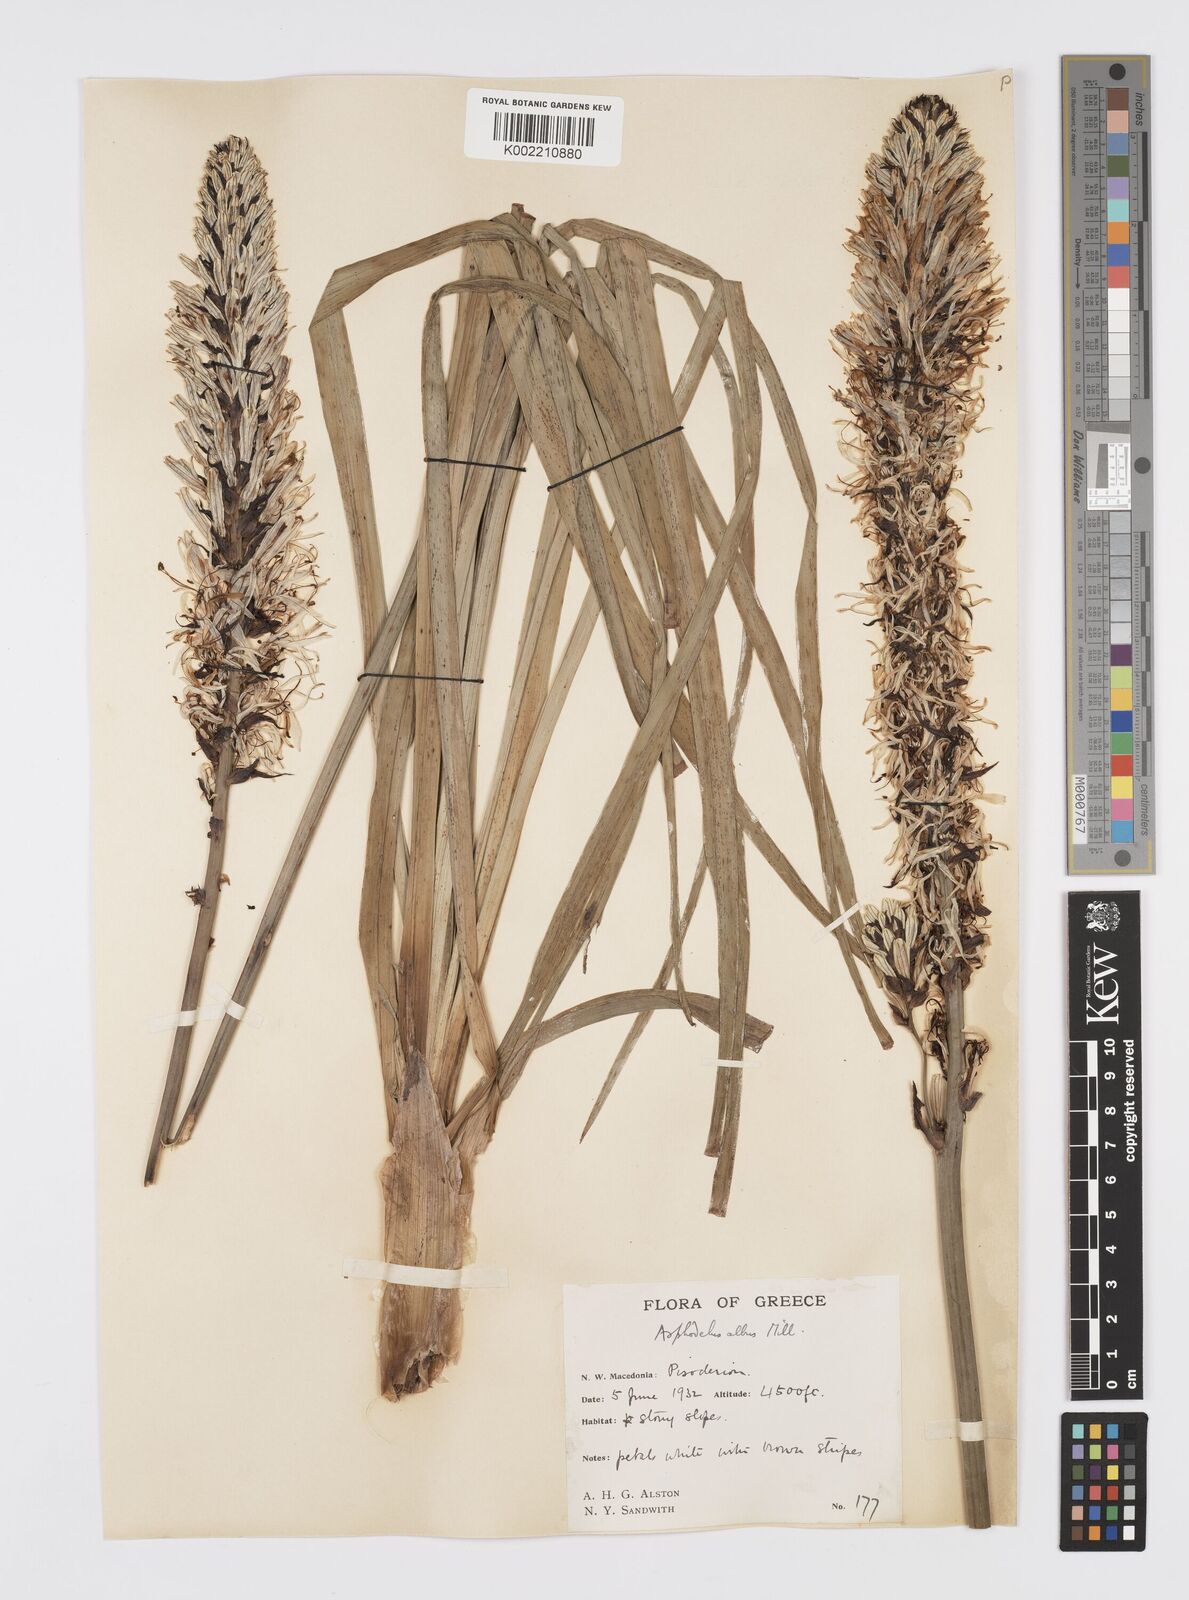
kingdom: Plantae
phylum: Tracheophyta
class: Liliopsida
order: Asparagales
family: Asphodelaceae
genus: Asphodelus
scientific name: Asphodelus albus
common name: White asphodel
